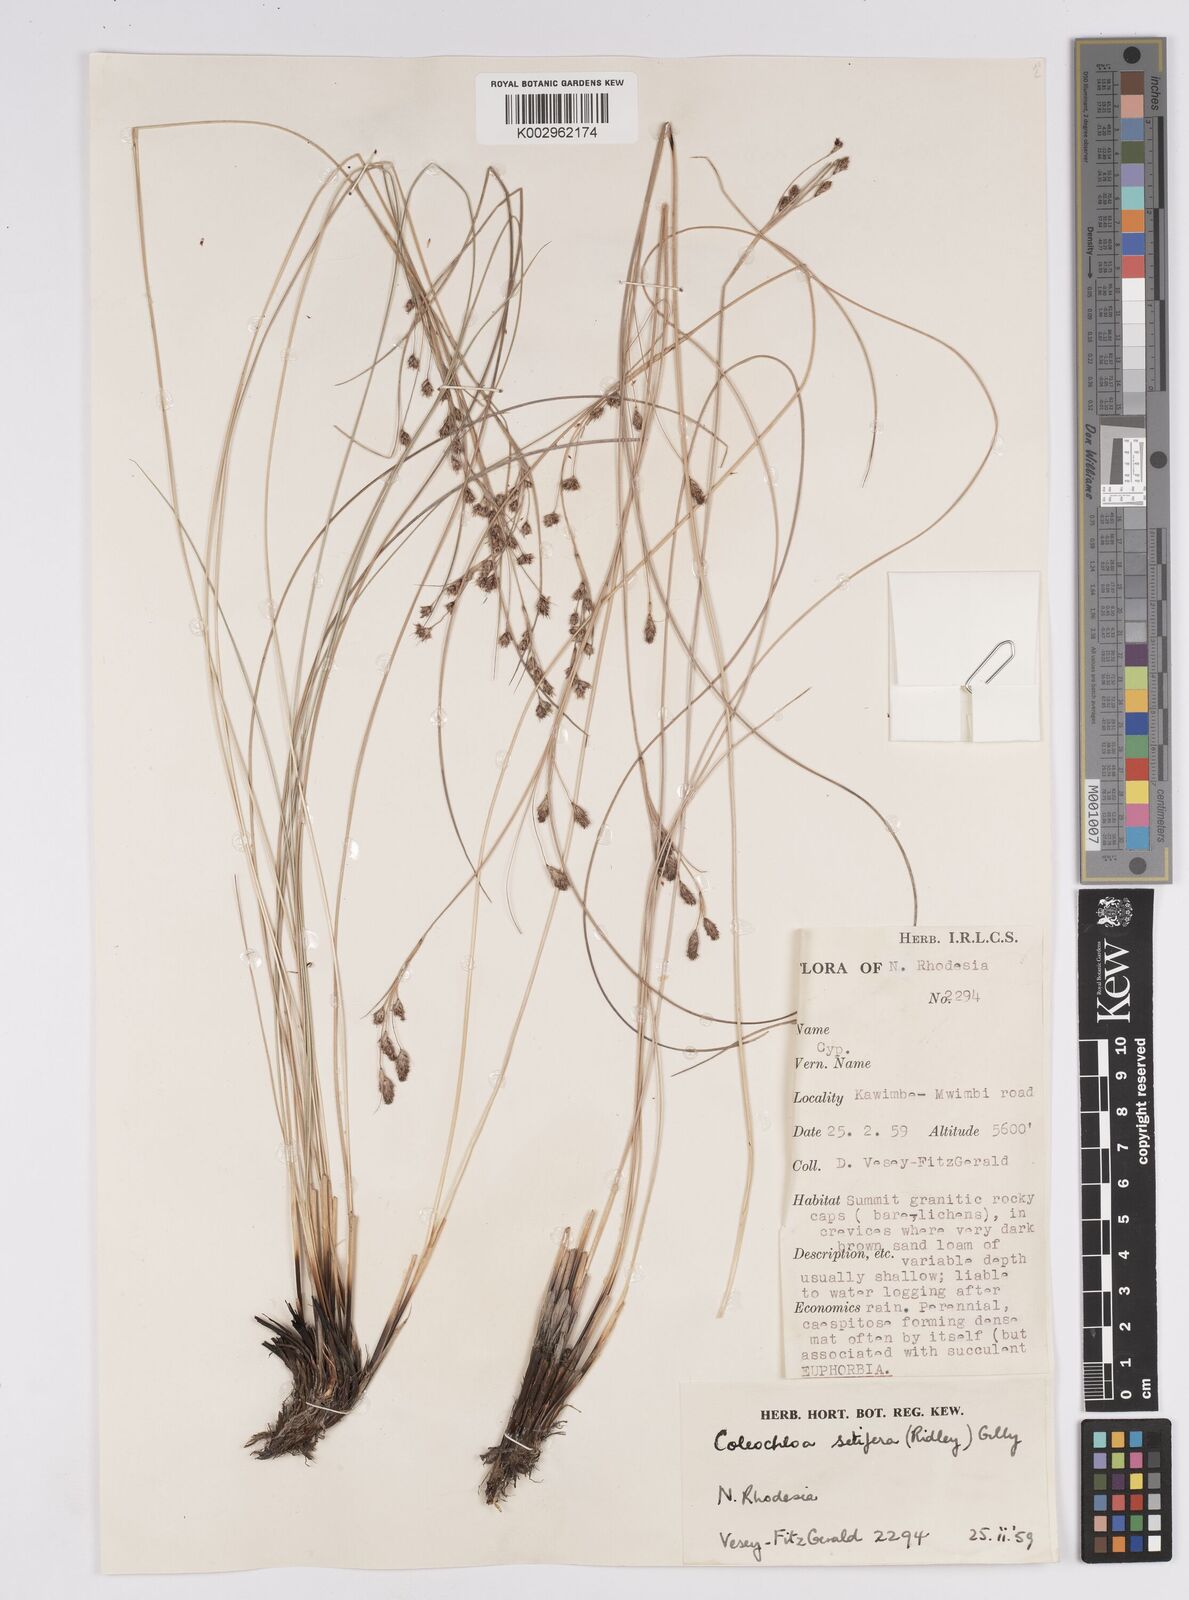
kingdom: Plantae
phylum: Tracheophyta
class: Liliopsida
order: Poales
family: Cyperaceae
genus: Coleochloa
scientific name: Coleochloa setifera
